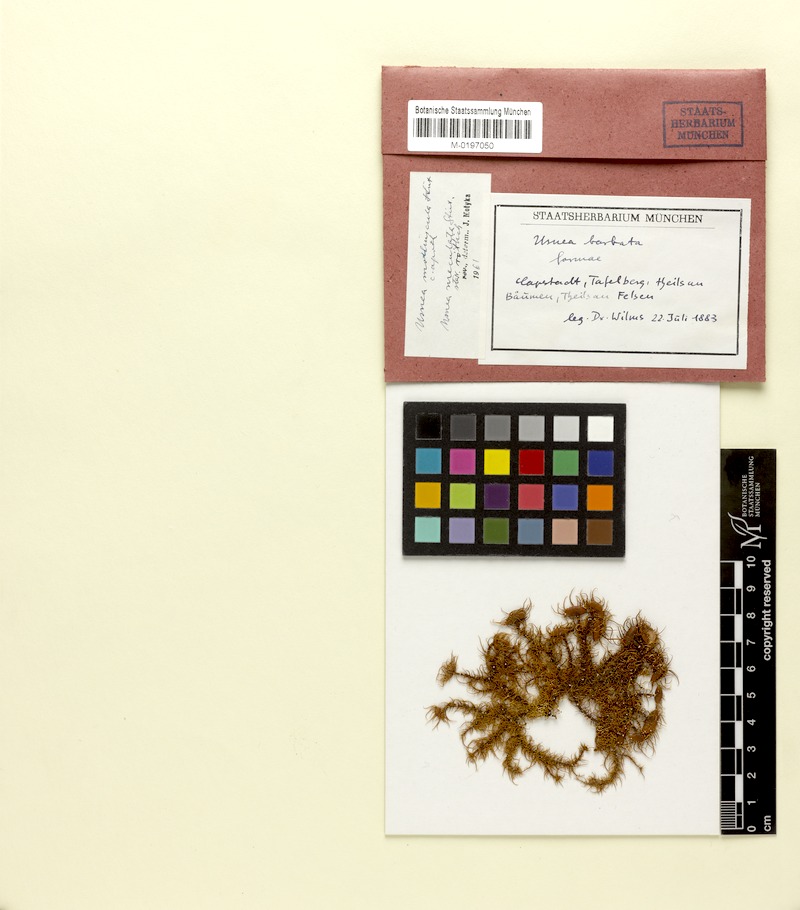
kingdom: Fungi
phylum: Ascomycota
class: Lecanoromycetes
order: Lecanorales
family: Parmeliaceae
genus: Usnea
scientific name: Usnea maculata
